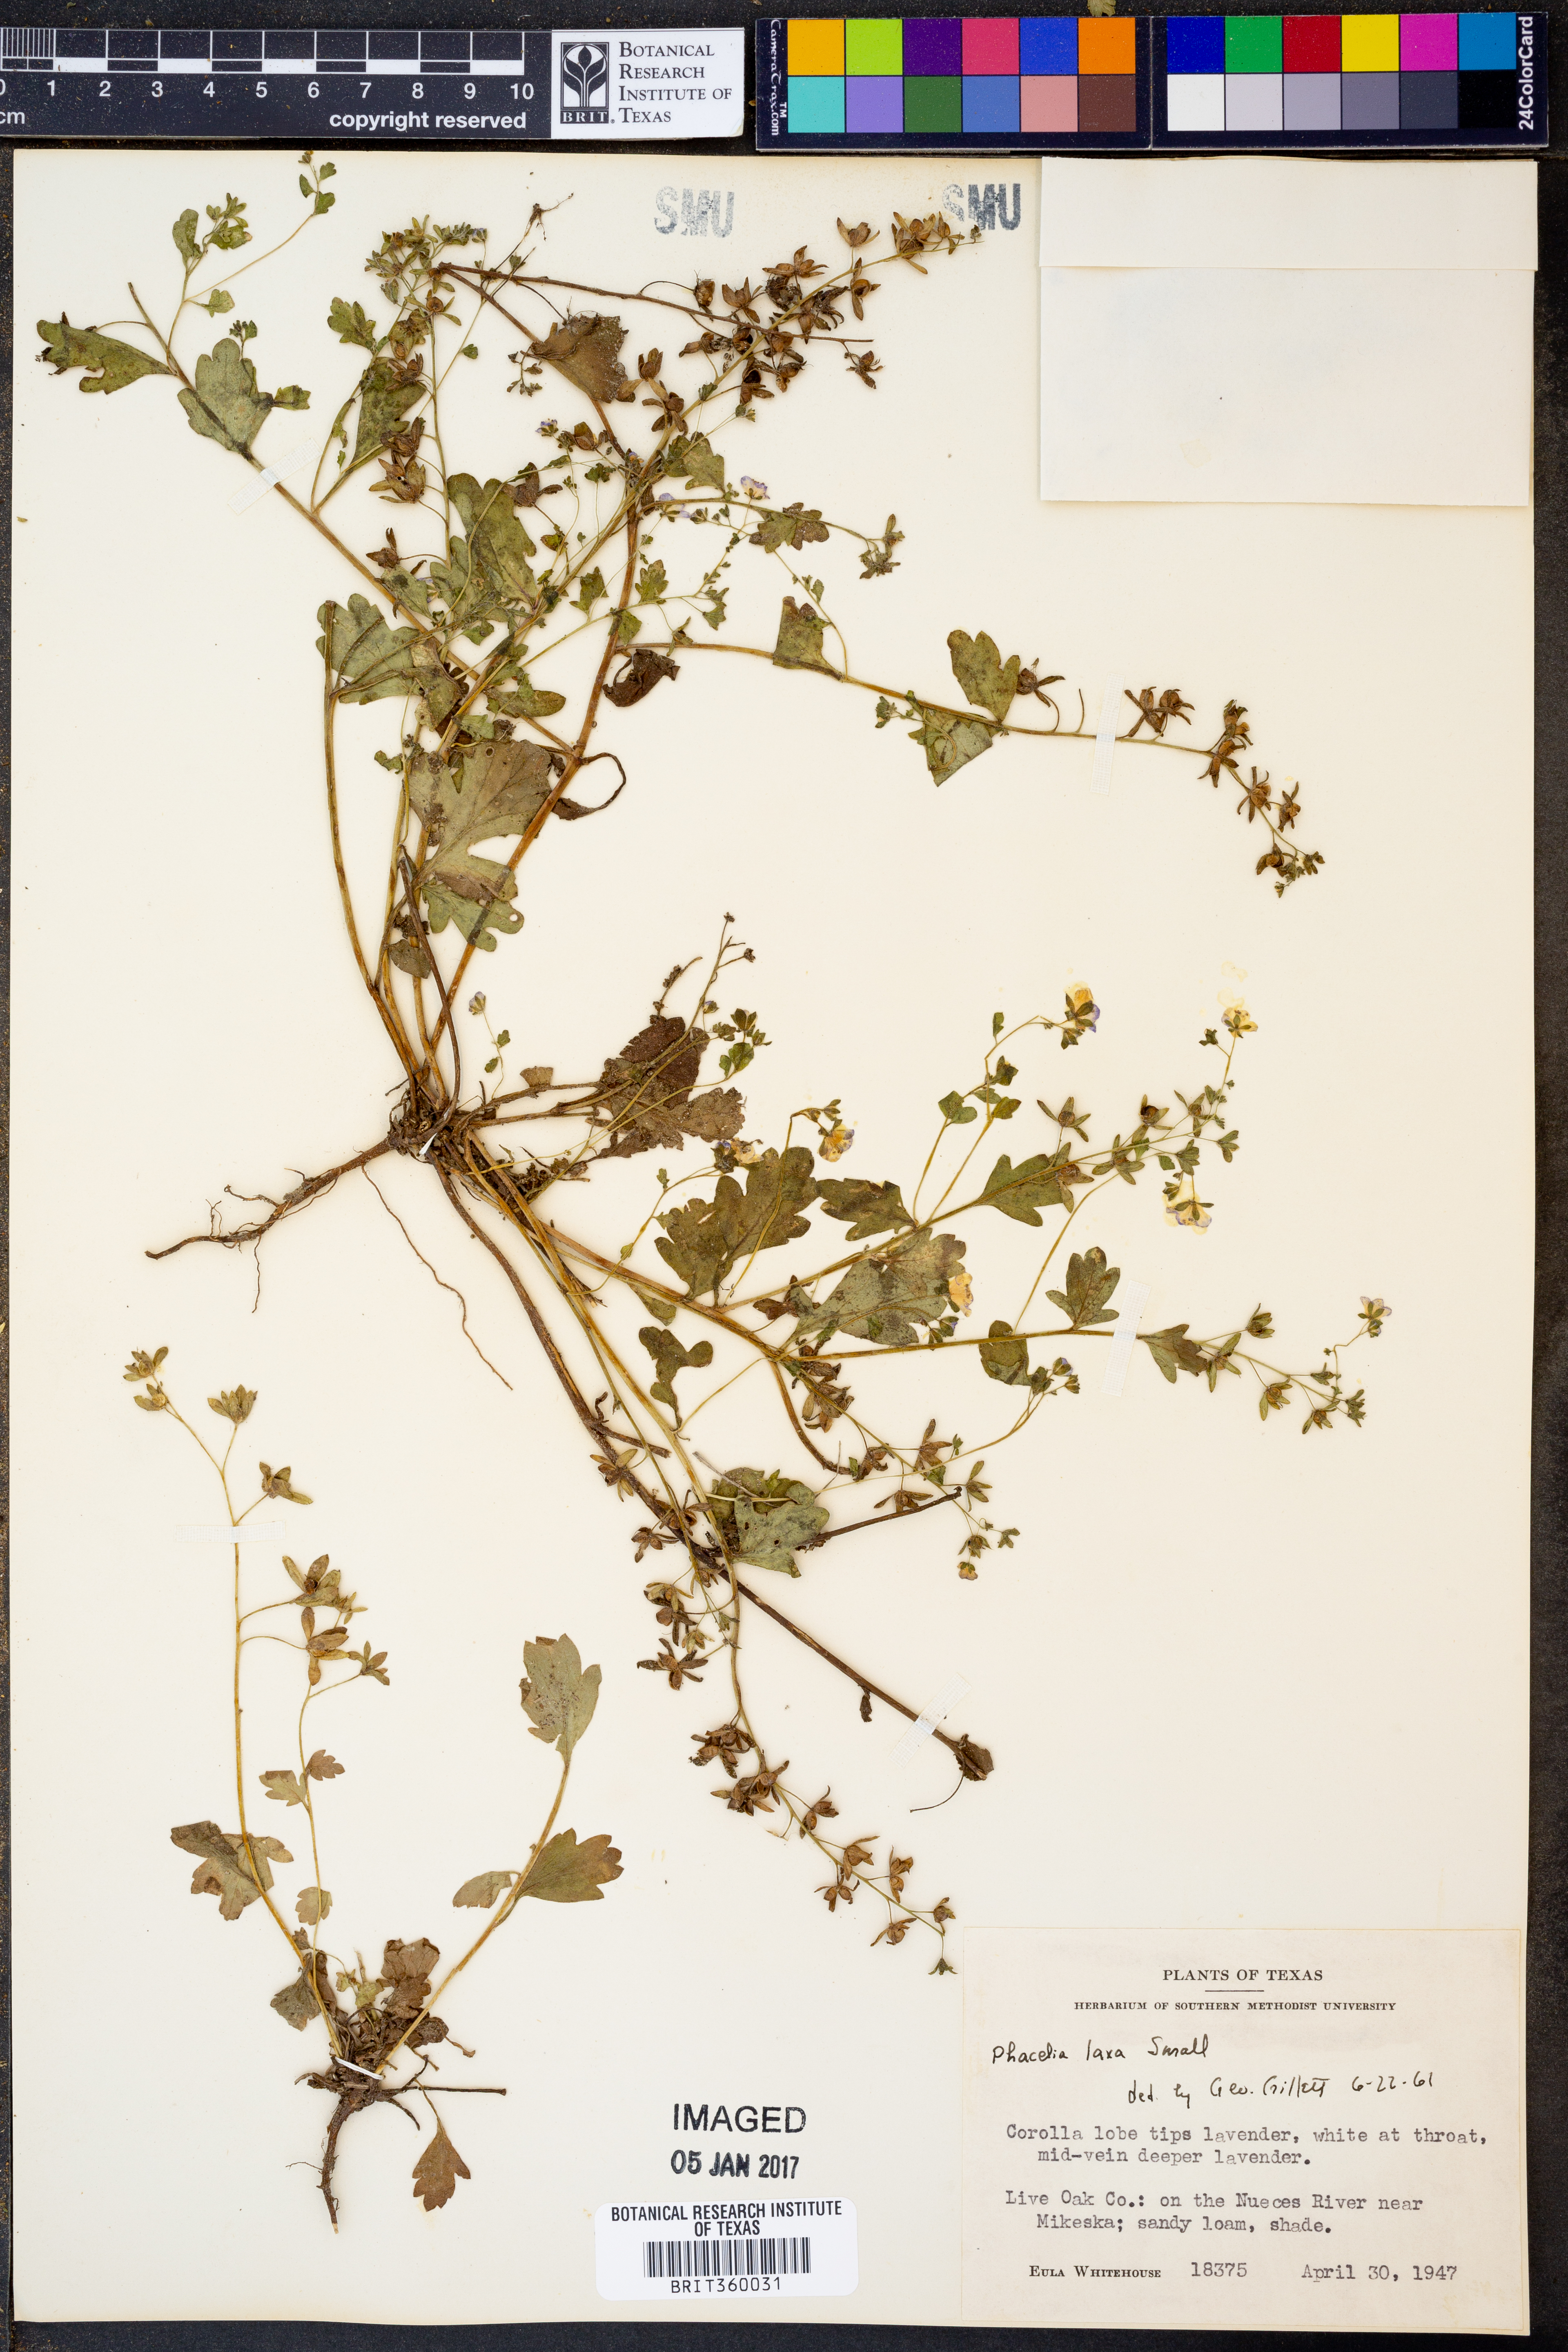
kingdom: Plantae
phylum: Tracheophyta
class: Magnoliopsida
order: Boraginales
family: Hydrophyllaceae
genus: Phacelia
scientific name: Phacelia laxa
